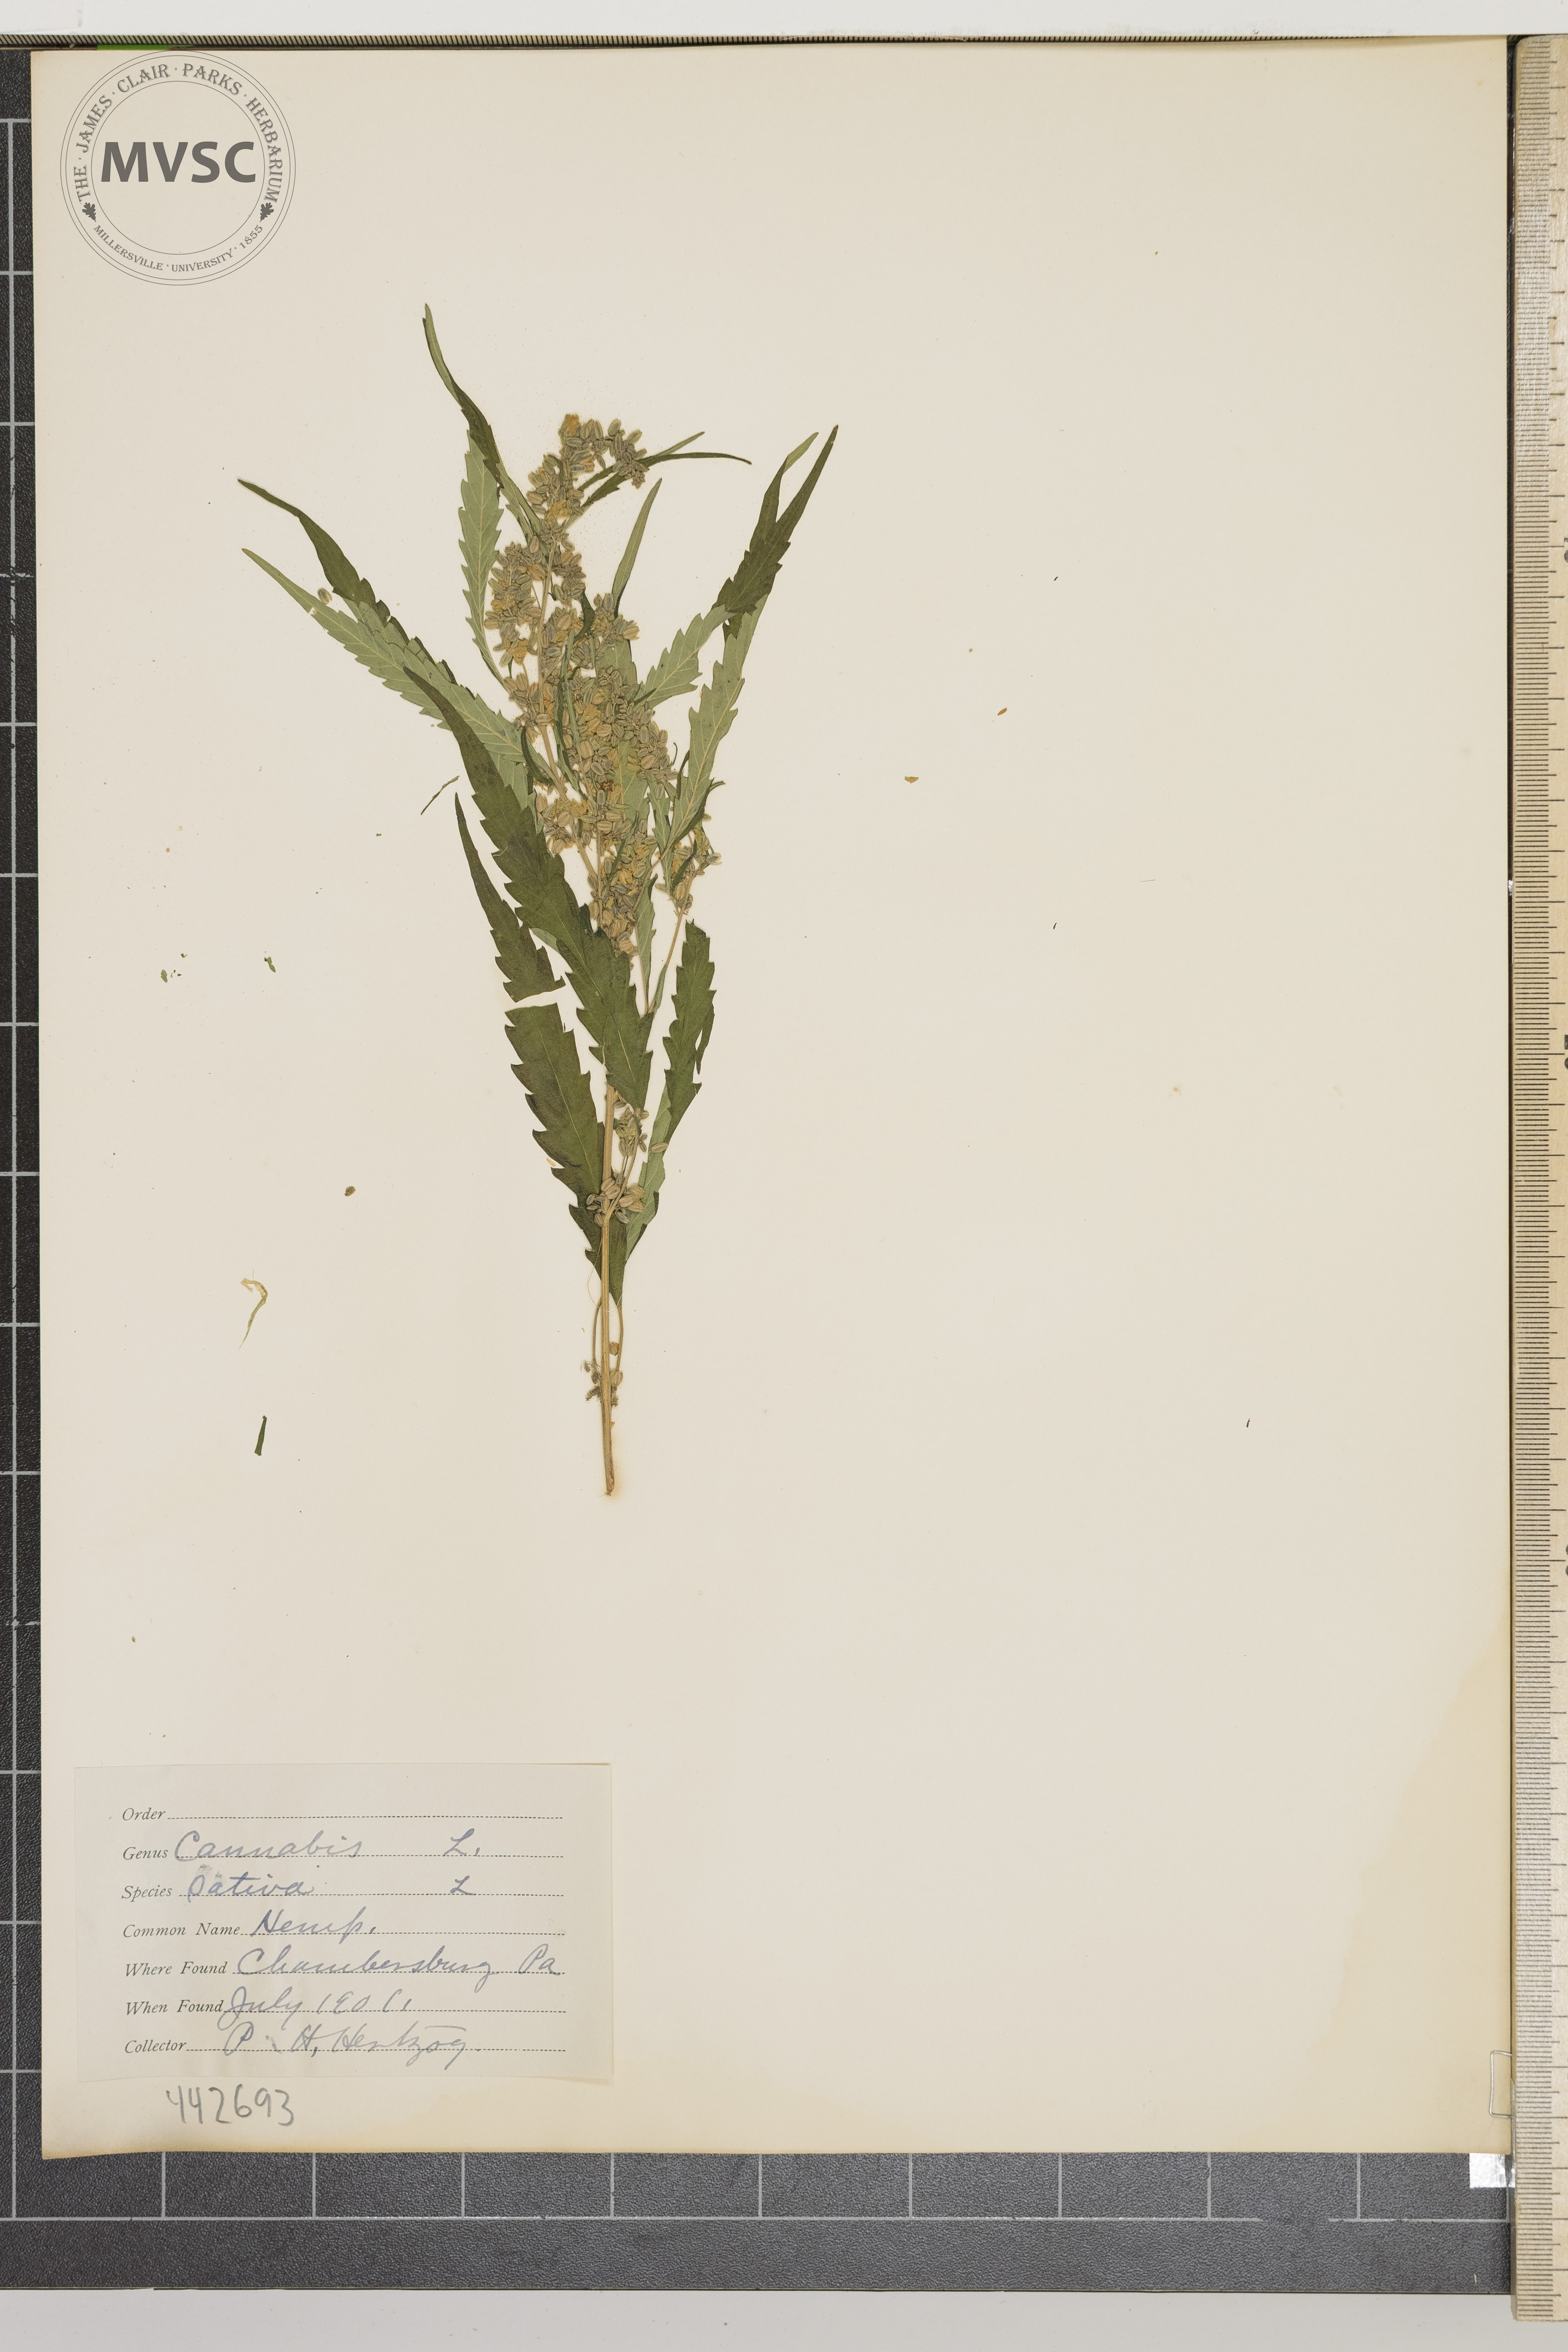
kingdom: Plantae
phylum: Tracheophyta
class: Magnoliopsida
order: Rosales
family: Cannabaceae
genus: Cannabis
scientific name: Cannabis sativa
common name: Hemp
